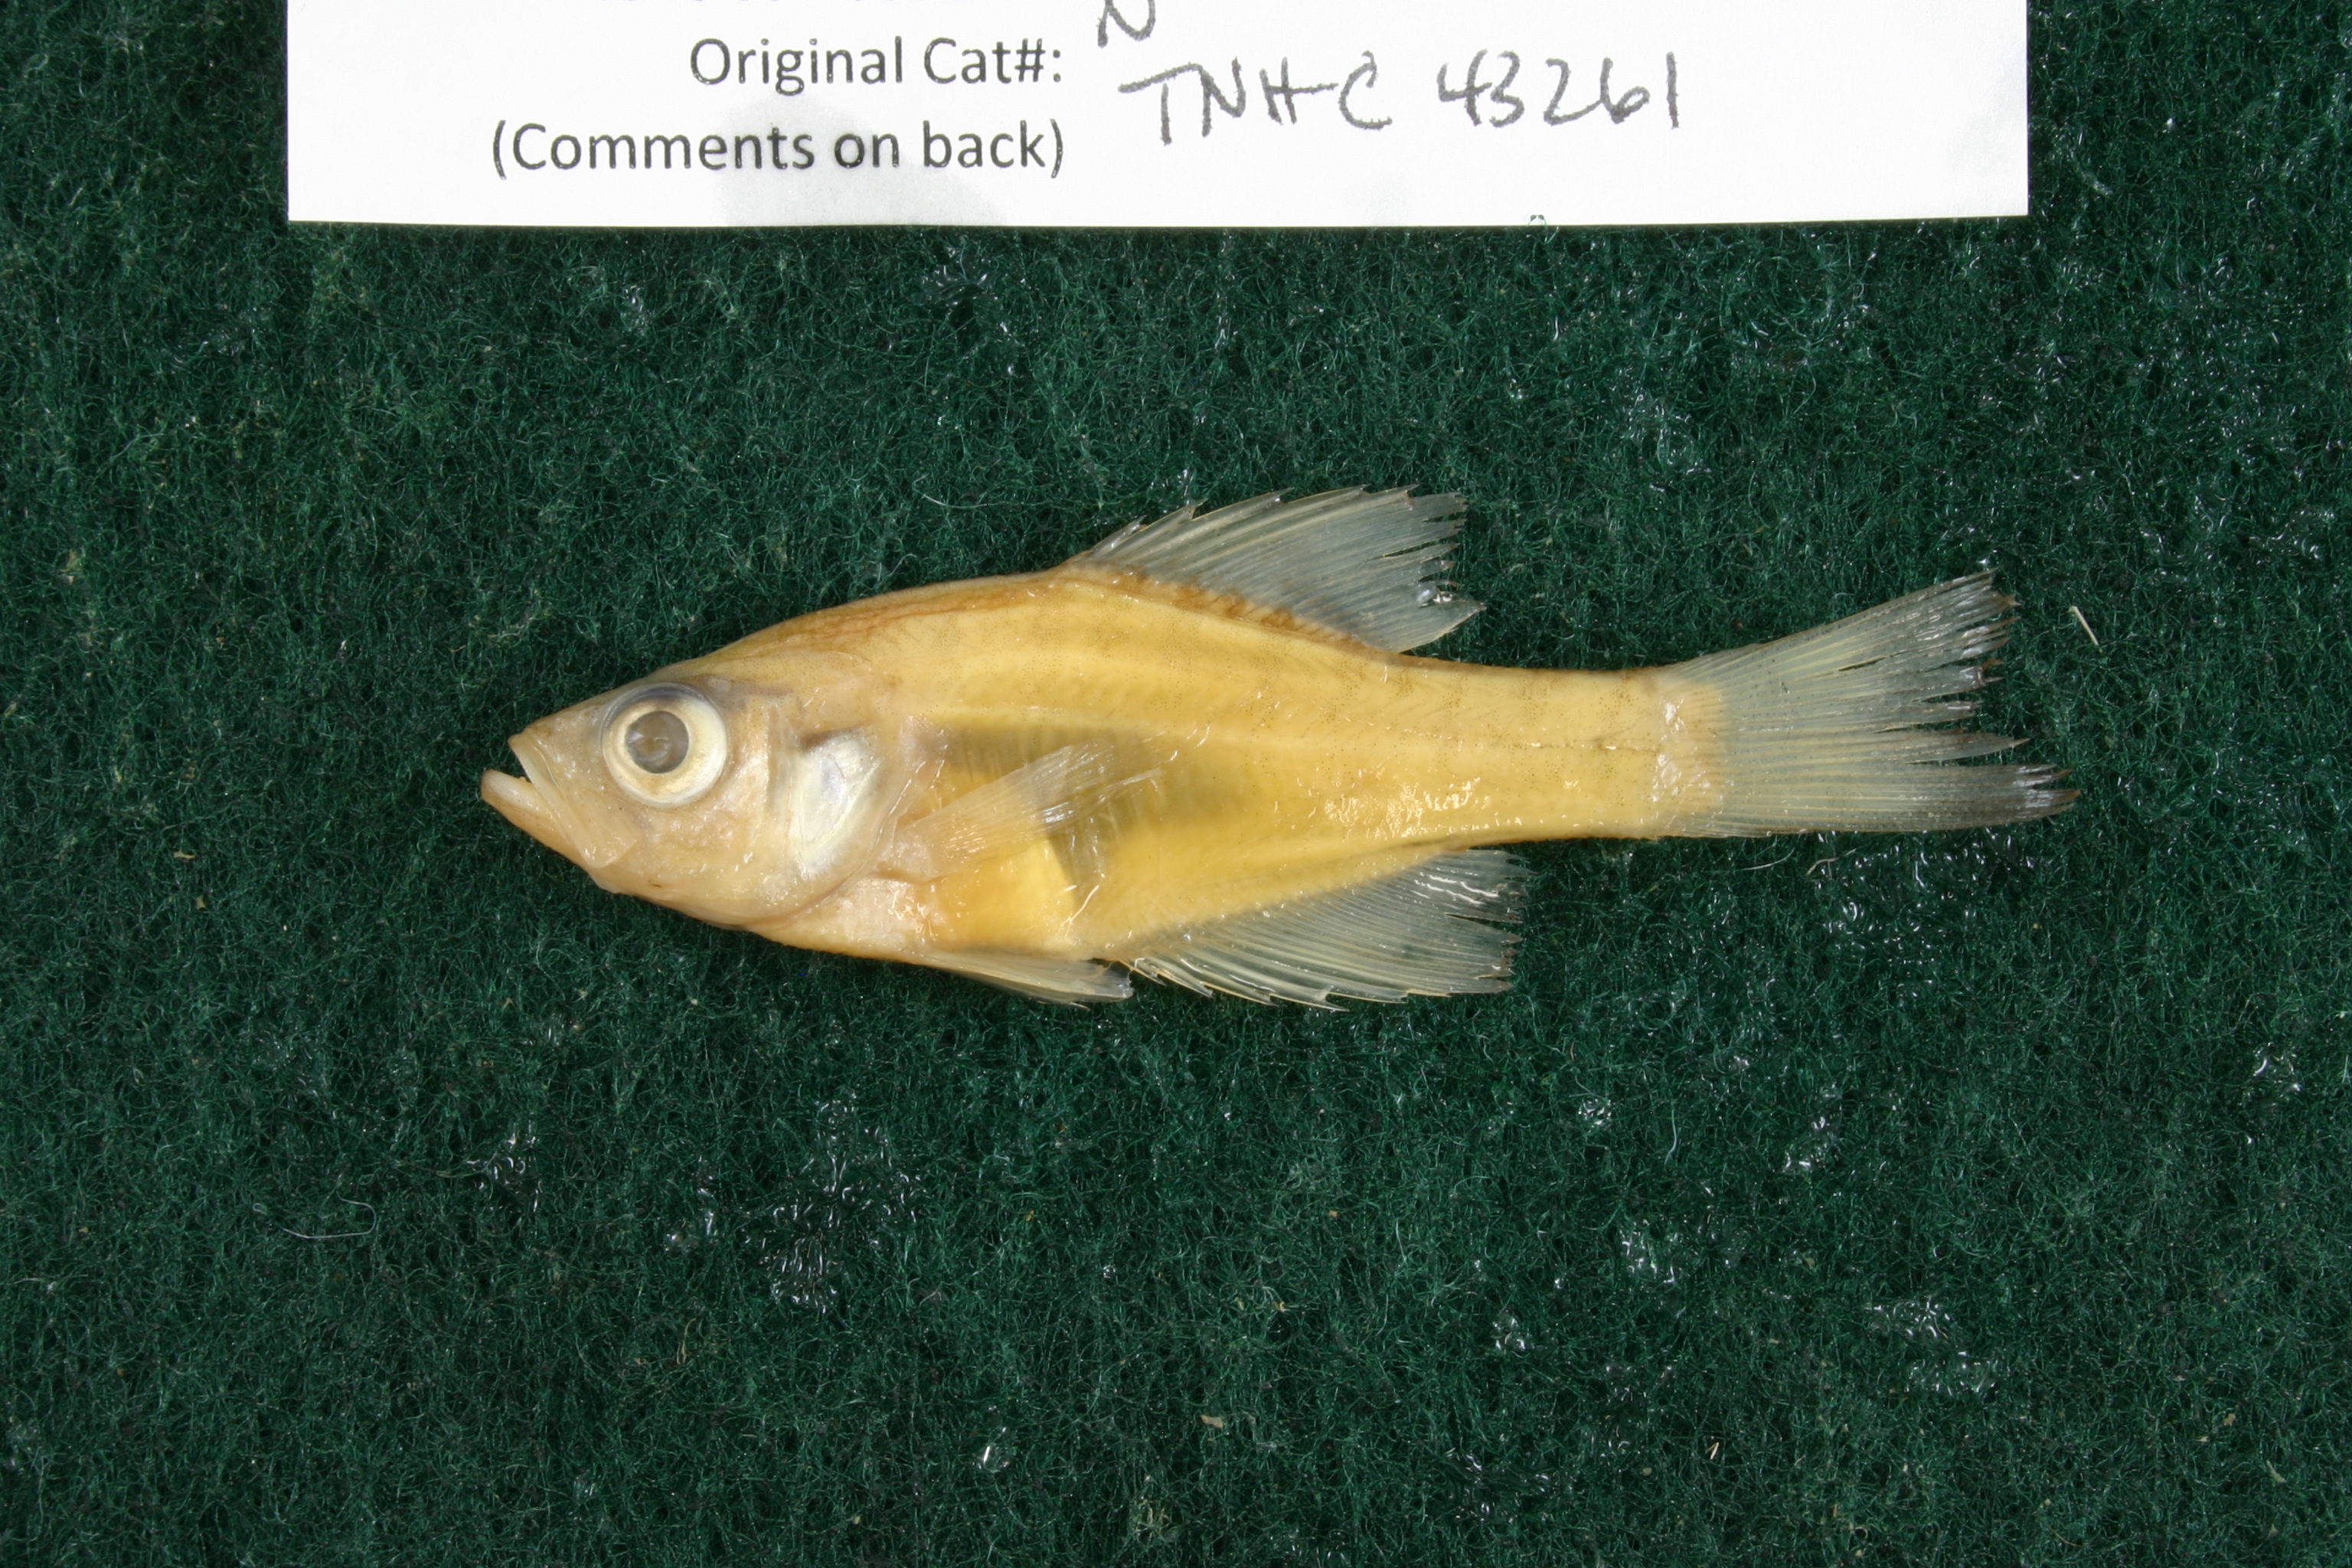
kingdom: Animalia
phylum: Chordata
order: Perciformes
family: Centrarchidae
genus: Pomoxis
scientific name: Pomoxis annularis
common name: White crappie
